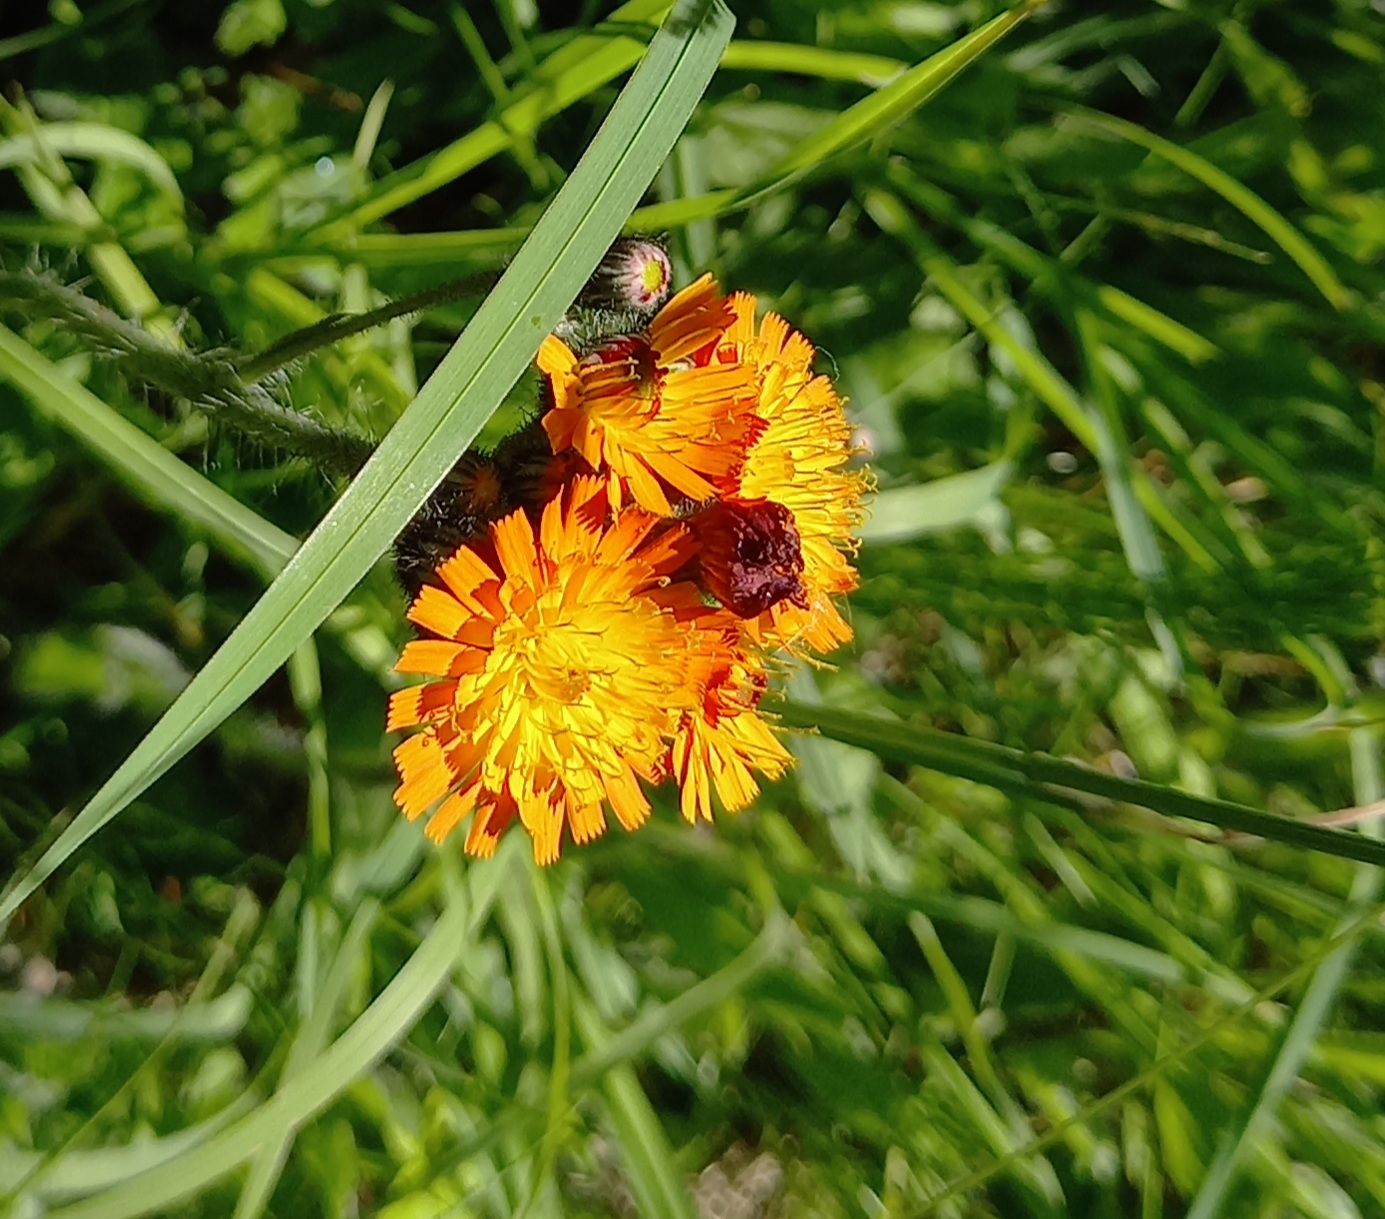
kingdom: Plantae
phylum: Tracheophyta
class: Magnoliopsida
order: Asterales
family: Asteraceae
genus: Pilosella
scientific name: Pilosella aurantiaca
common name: Pomerans-høgeurt
